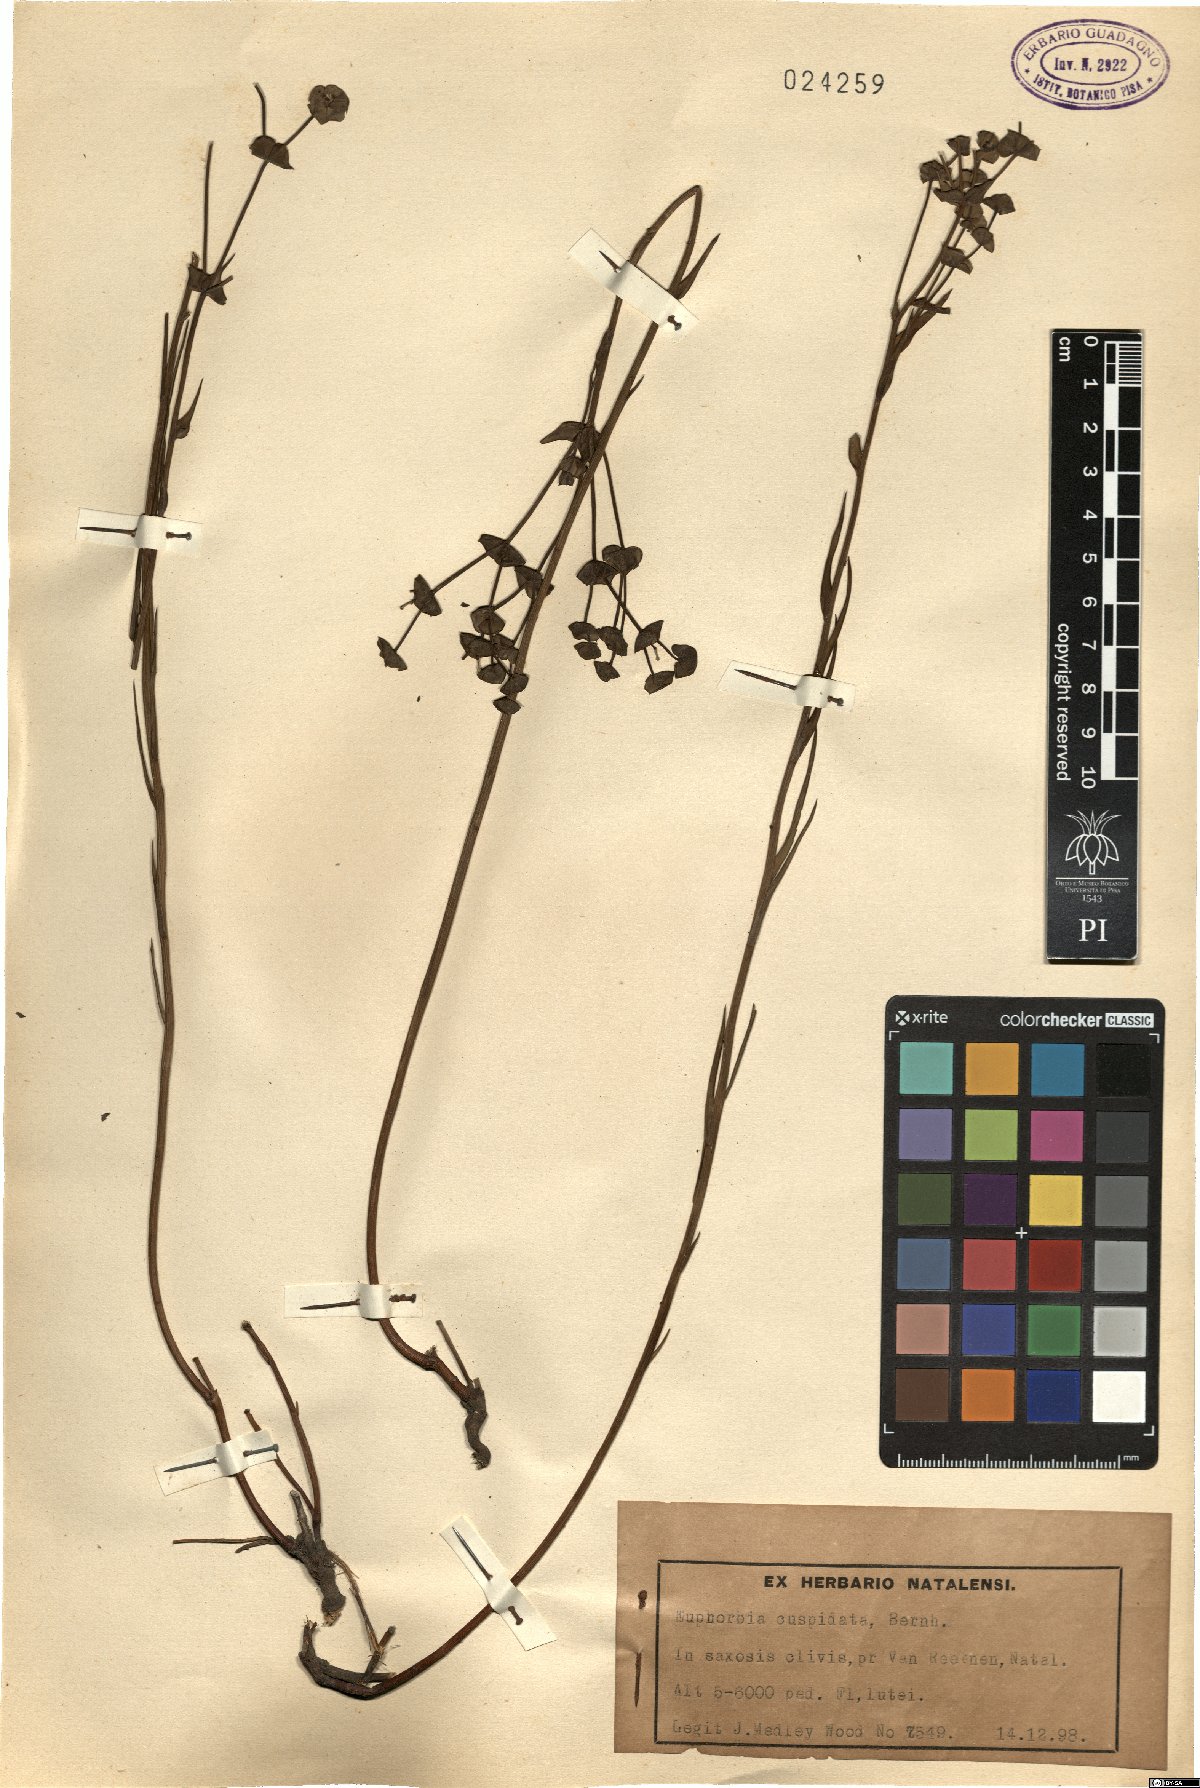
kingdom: Plantae
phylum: Tracheophyta
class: Magnoliopsida
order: Malpighiales
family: Euphorbiaceae
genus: Euphorbia
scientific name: Euphorbia striata
